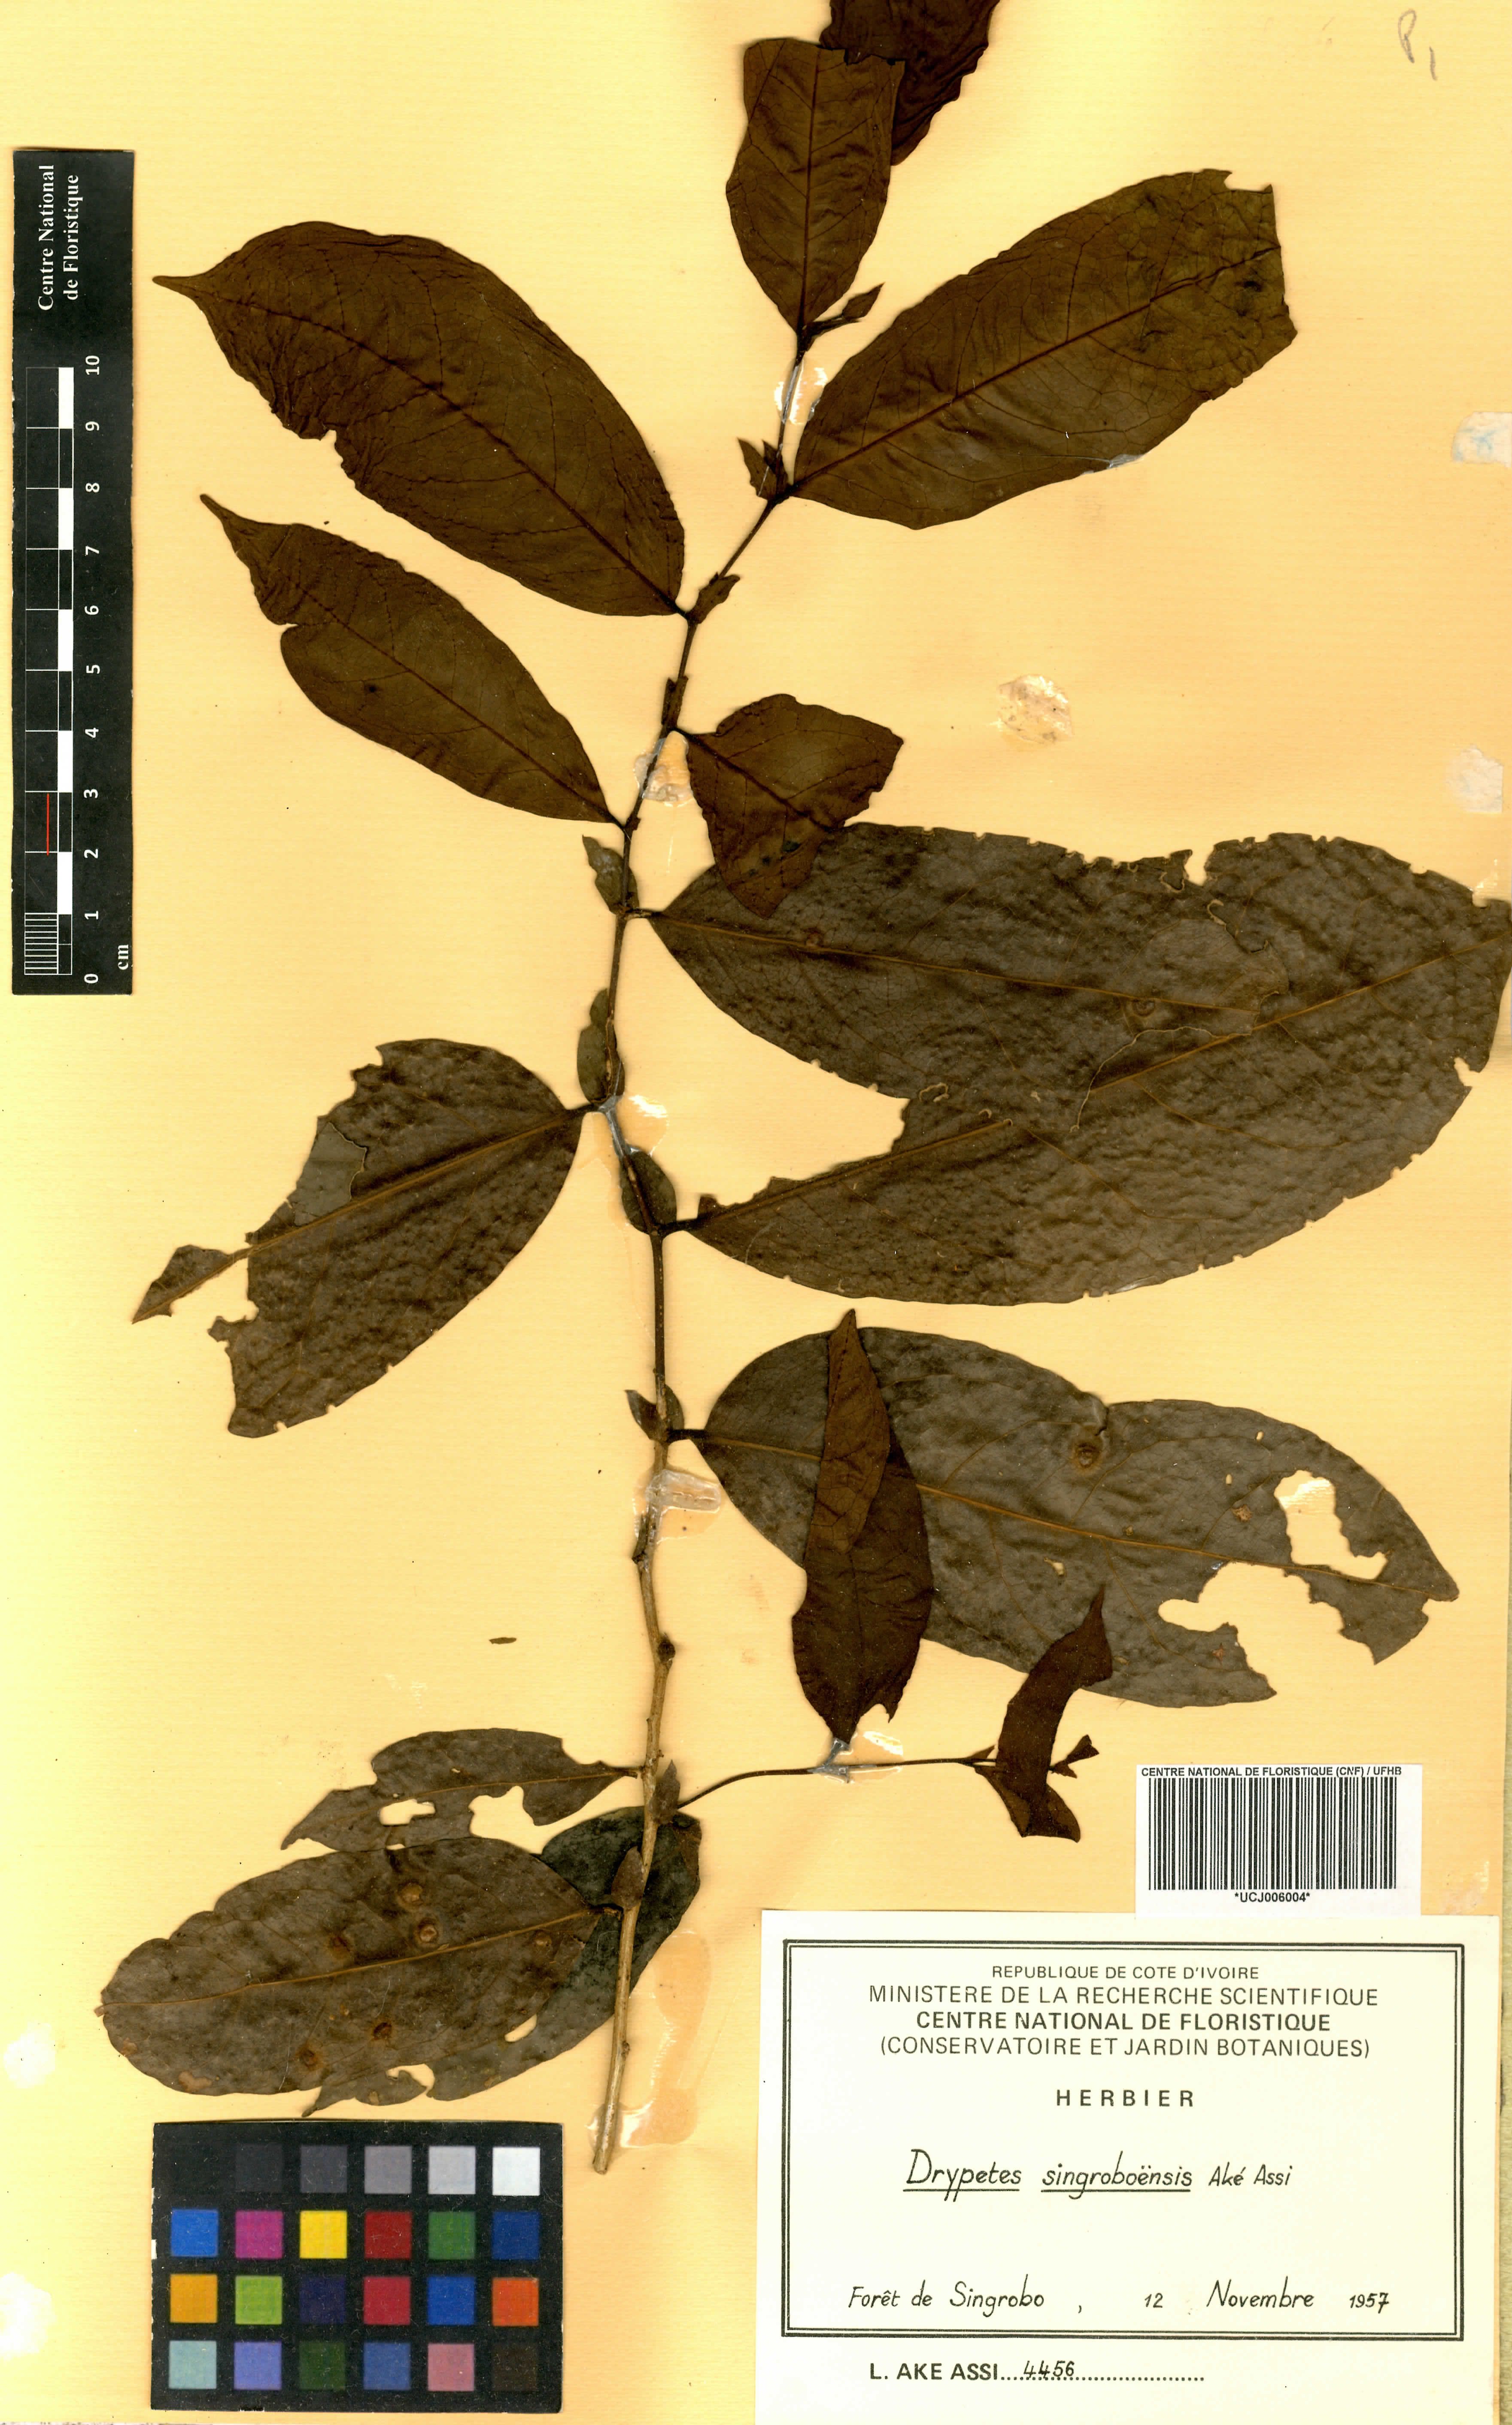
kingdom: Plantae
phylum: Tracheophyta
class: Magnoliopsida
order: Malpighiales
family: Putranjivaceae
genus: Drypetes
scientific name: Drypetes singroboensis
